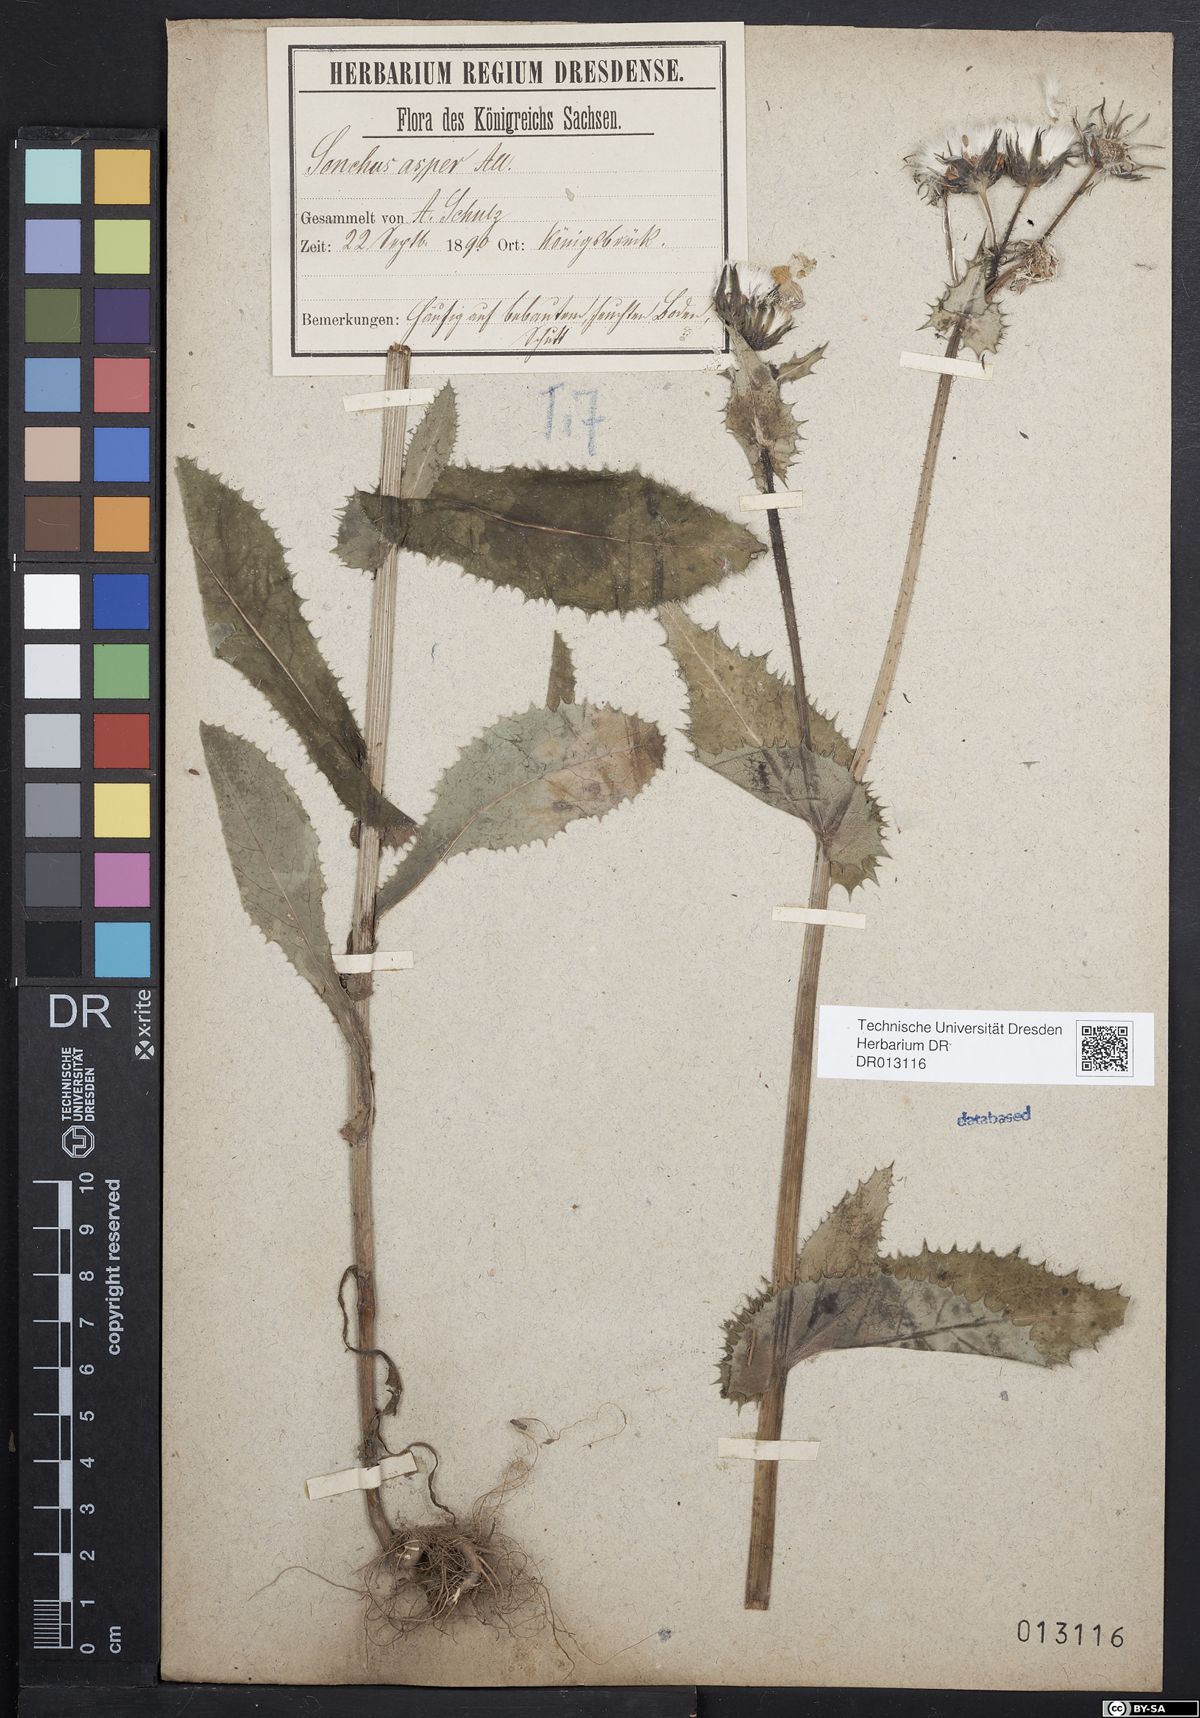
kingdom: Plantae
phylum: Tracheophyta
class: Magnoliopsida
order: Asterales
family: Asteraceae
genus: Sonchus
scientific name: Sonchus asper
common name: Prickly sow-thistle
